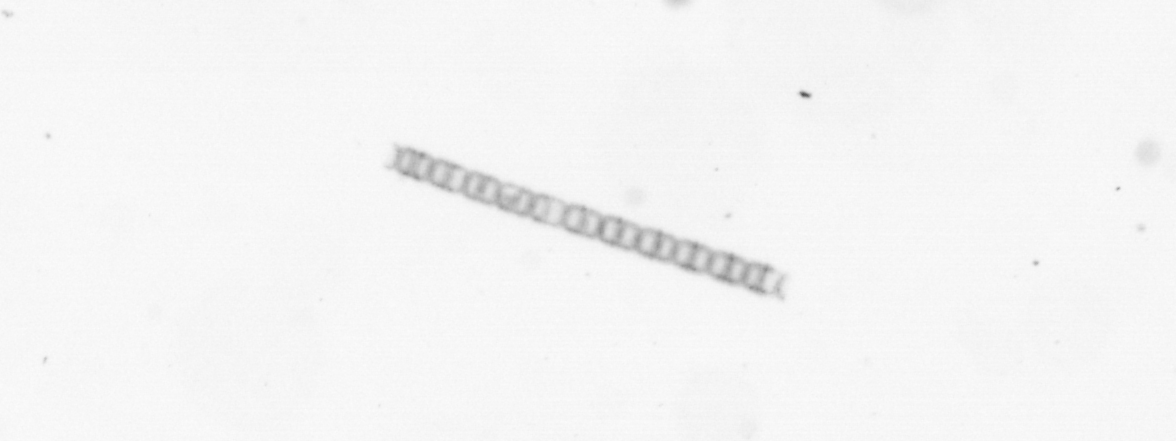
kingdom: Chromista
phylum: Ochrophyta
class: Bacillariophyceae
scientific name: Bacillariophyceae
